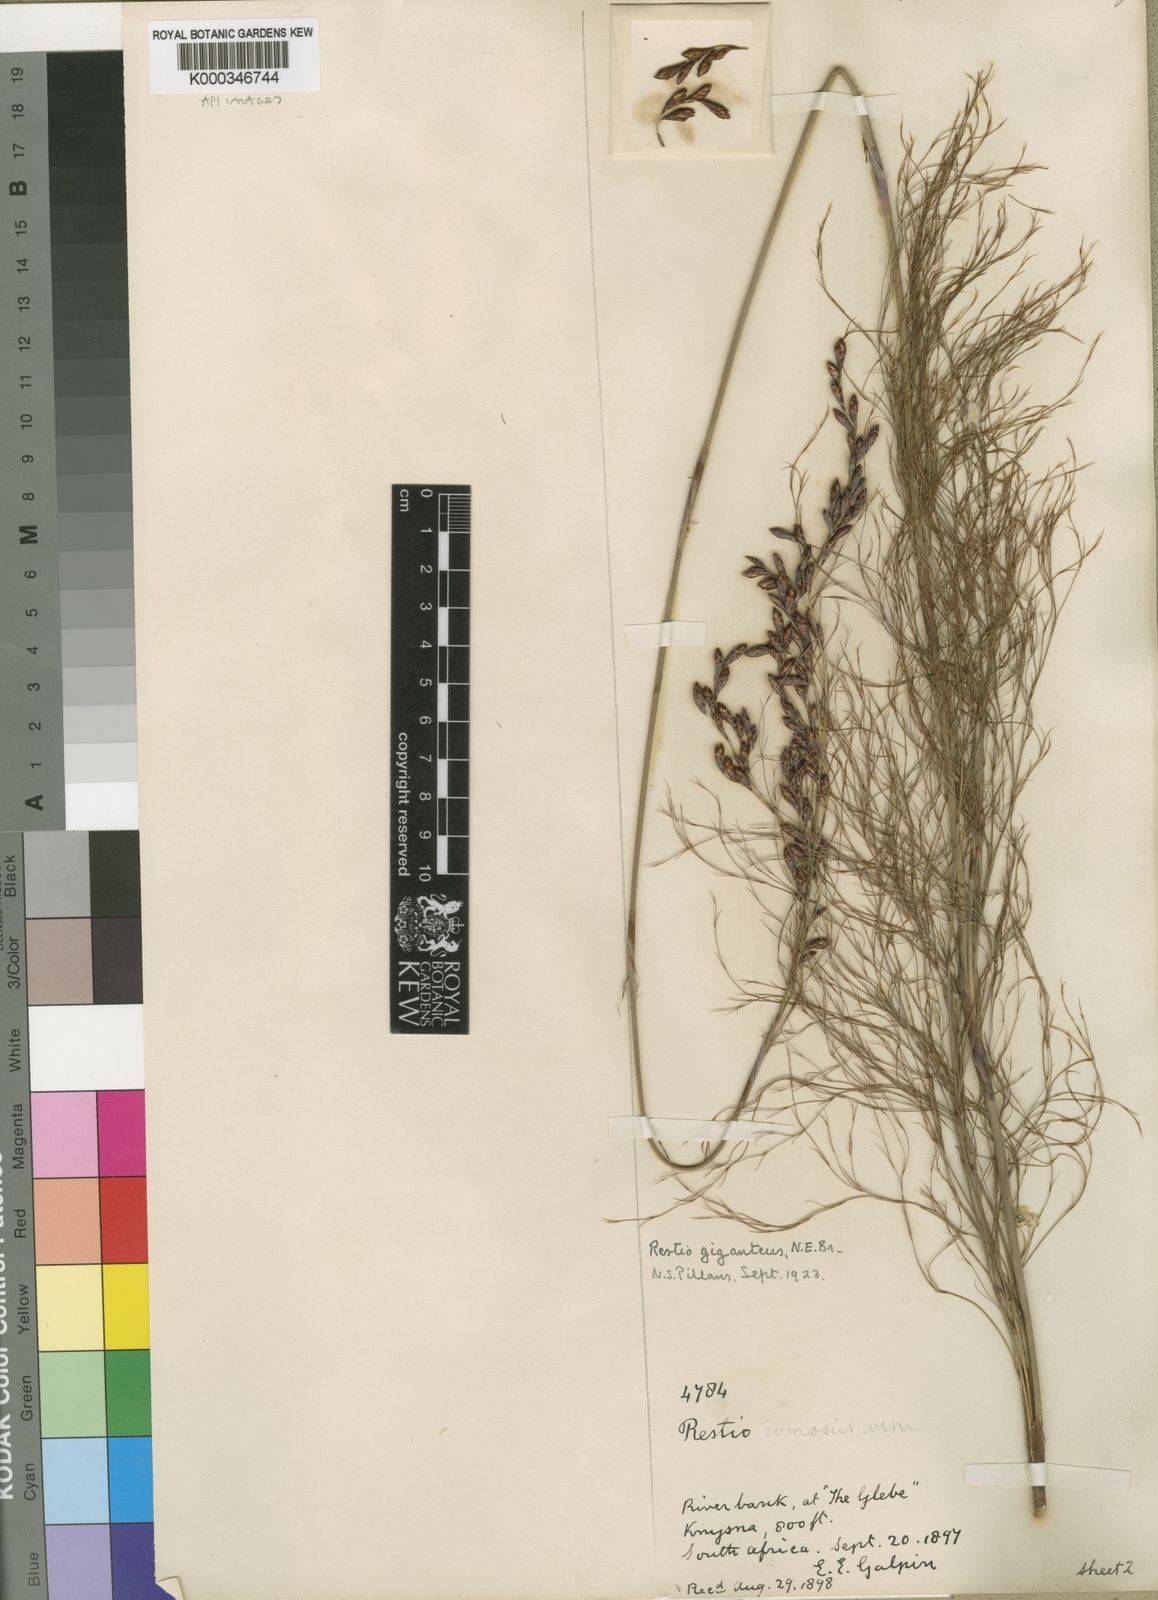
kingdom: Plantae
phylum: Tracheophyta
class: Liliopsida
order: Poales
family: Restionaceae
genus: Rhodocoma
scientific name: Rhodocoma gigantea
